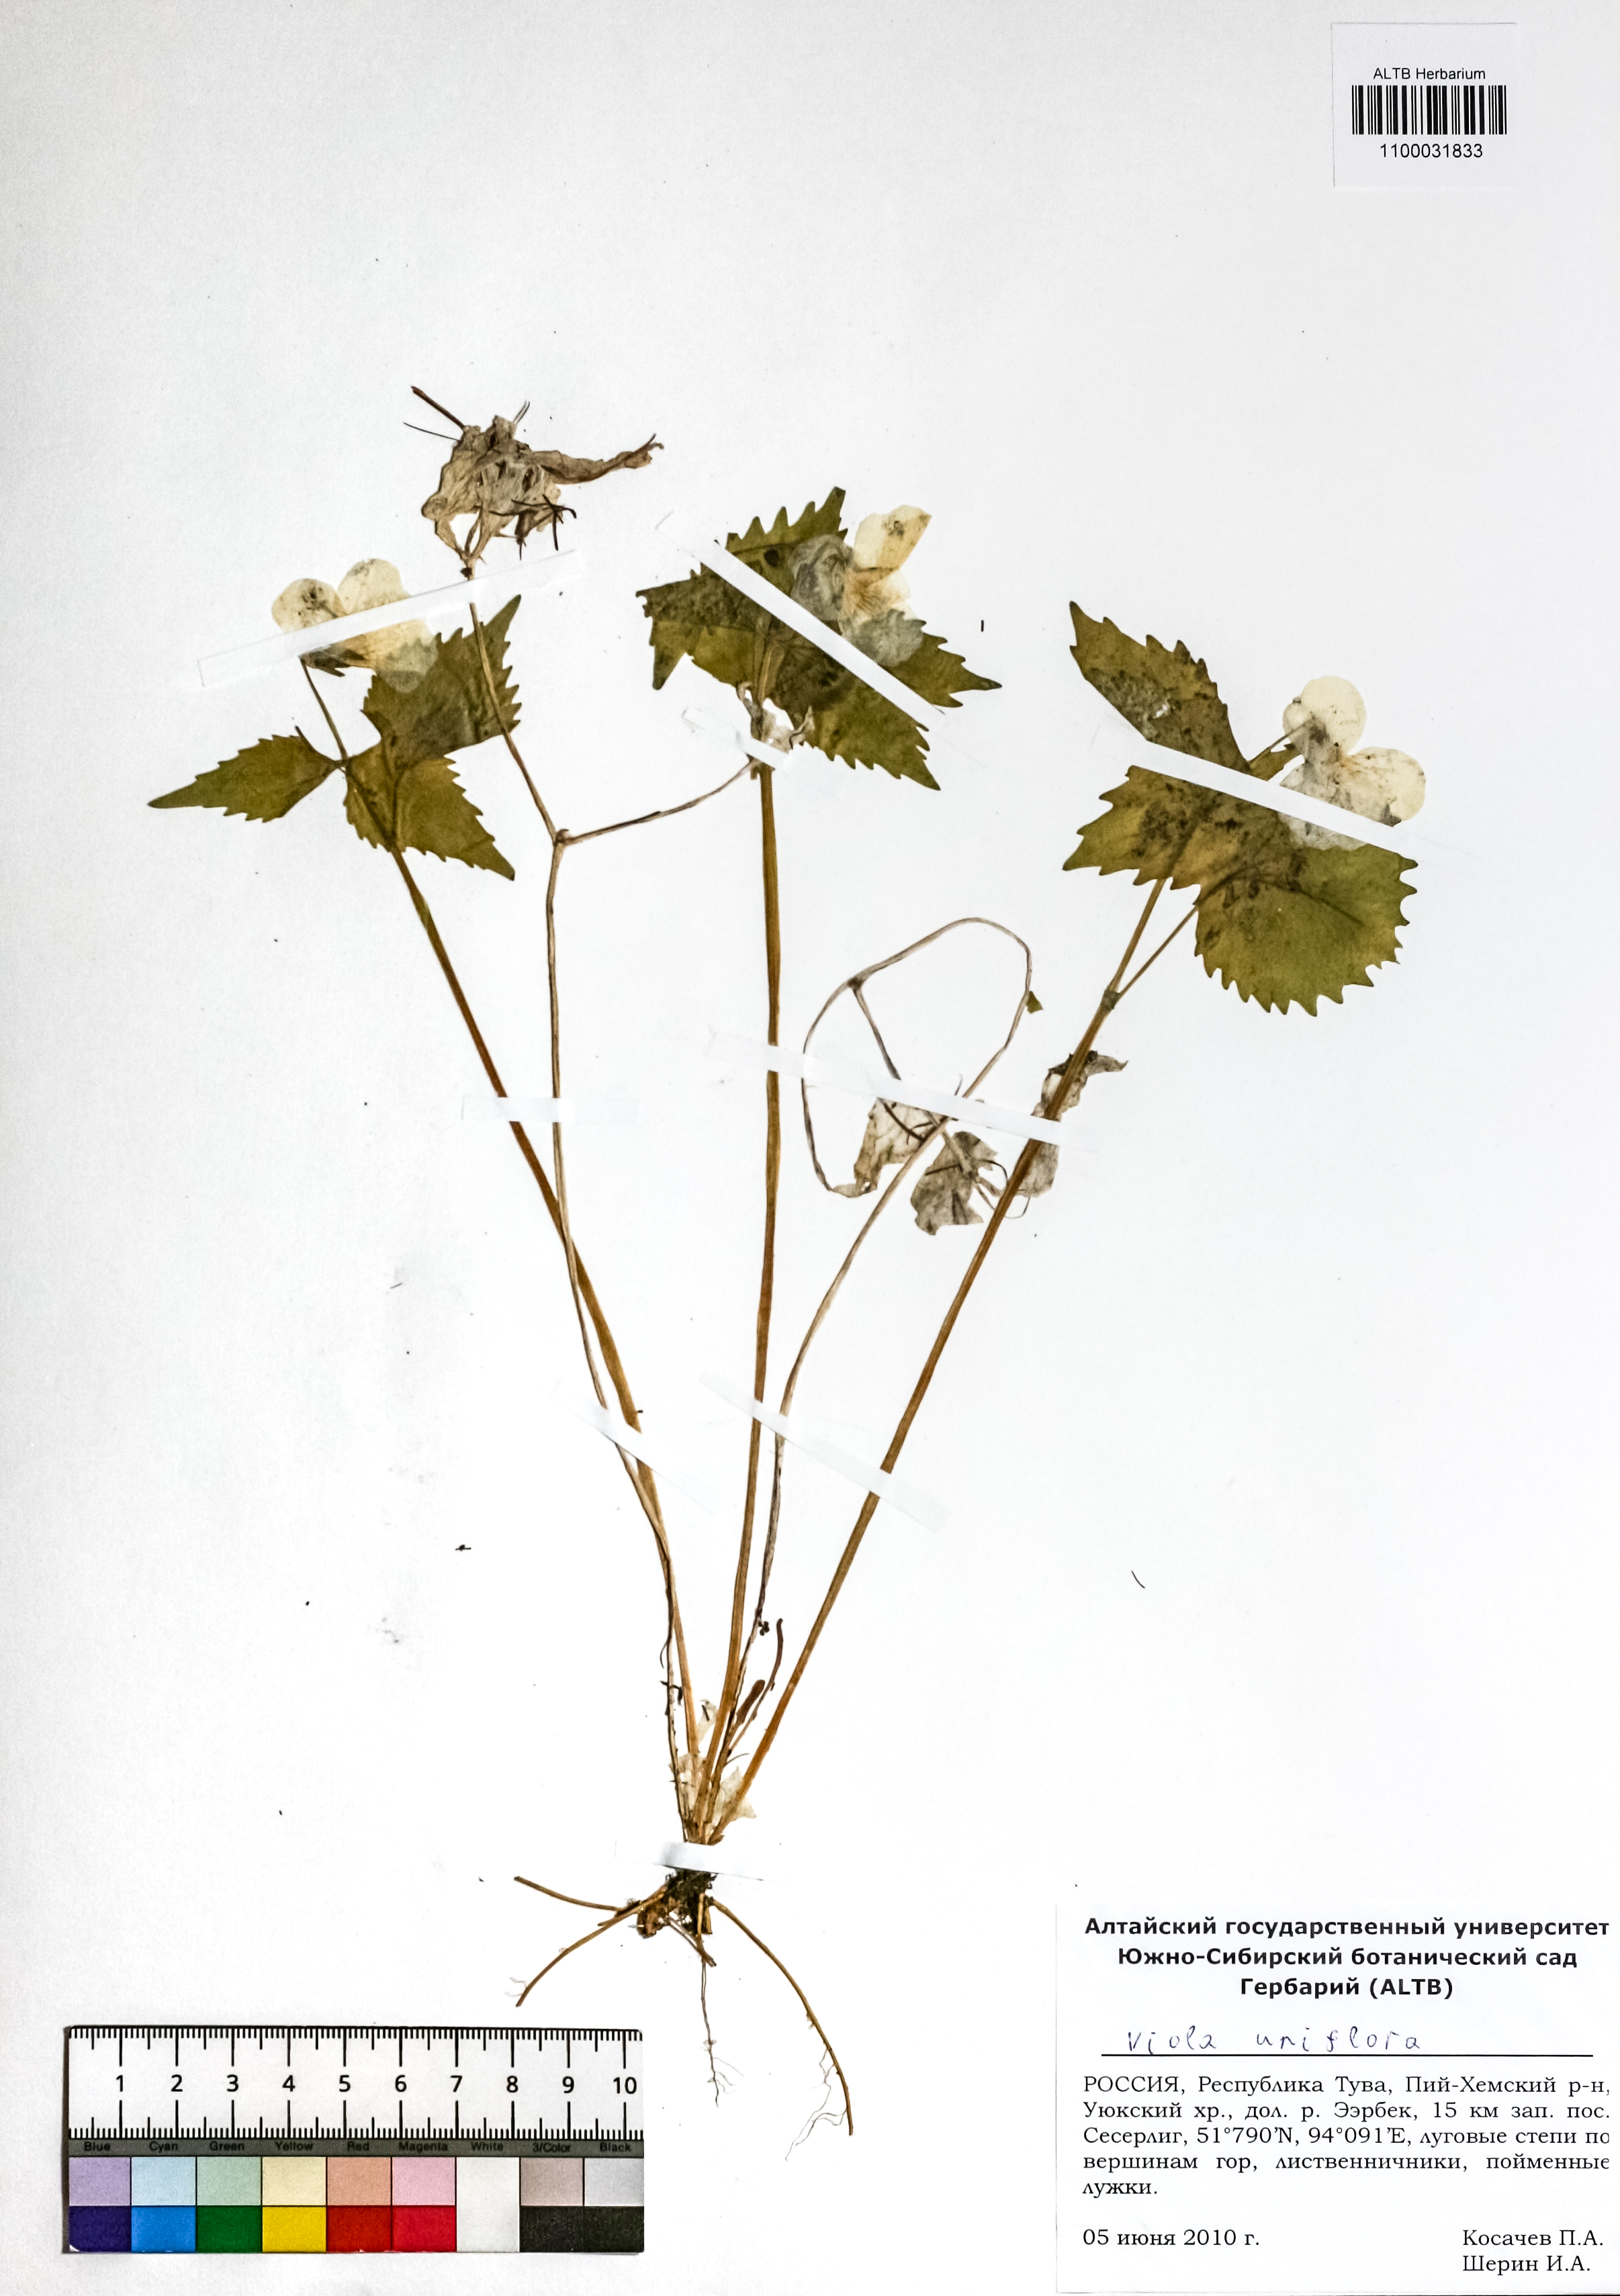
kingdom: Plantae
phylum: Tracheophyta
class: Magnoliopsida
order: Malpighiales
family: Violaceae
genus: Viola
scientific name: Viola uniflora
